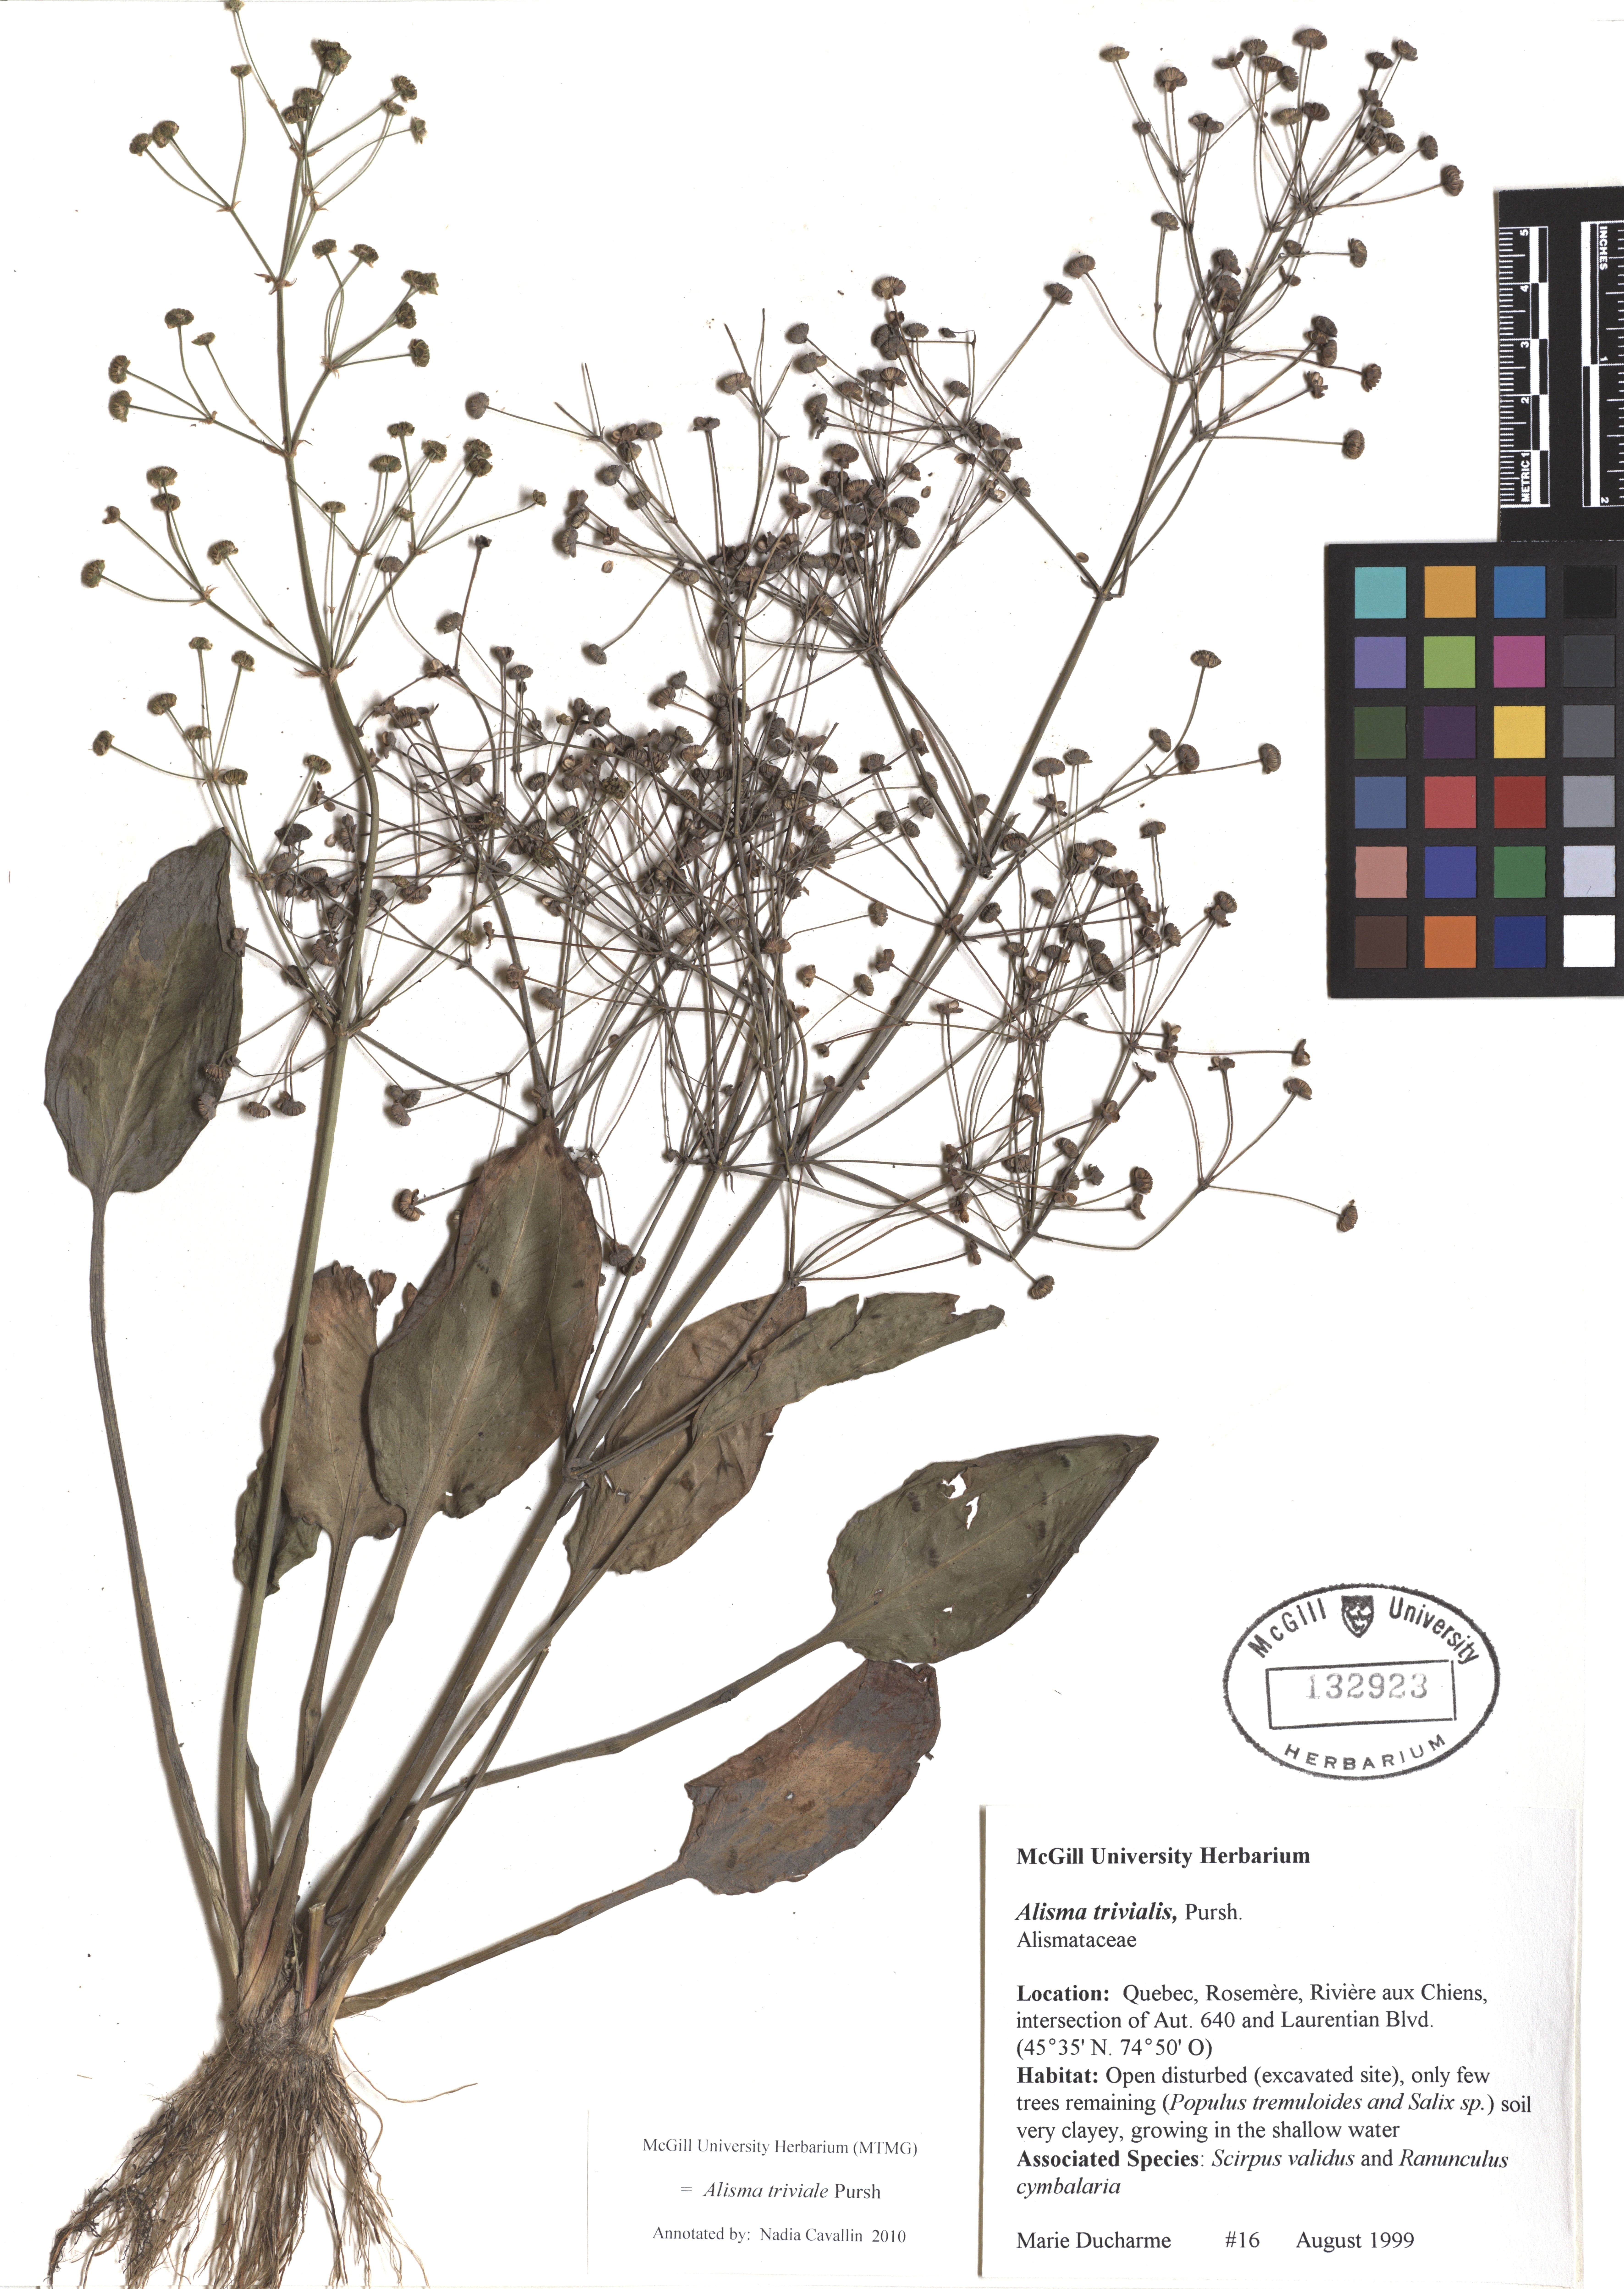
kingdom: Plantae
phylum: Tracheophyta
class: Liliopsida
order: Alismatales
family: Alismataceae
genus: Alisma
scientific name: Alisma triviale
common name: Northern water-plantain
